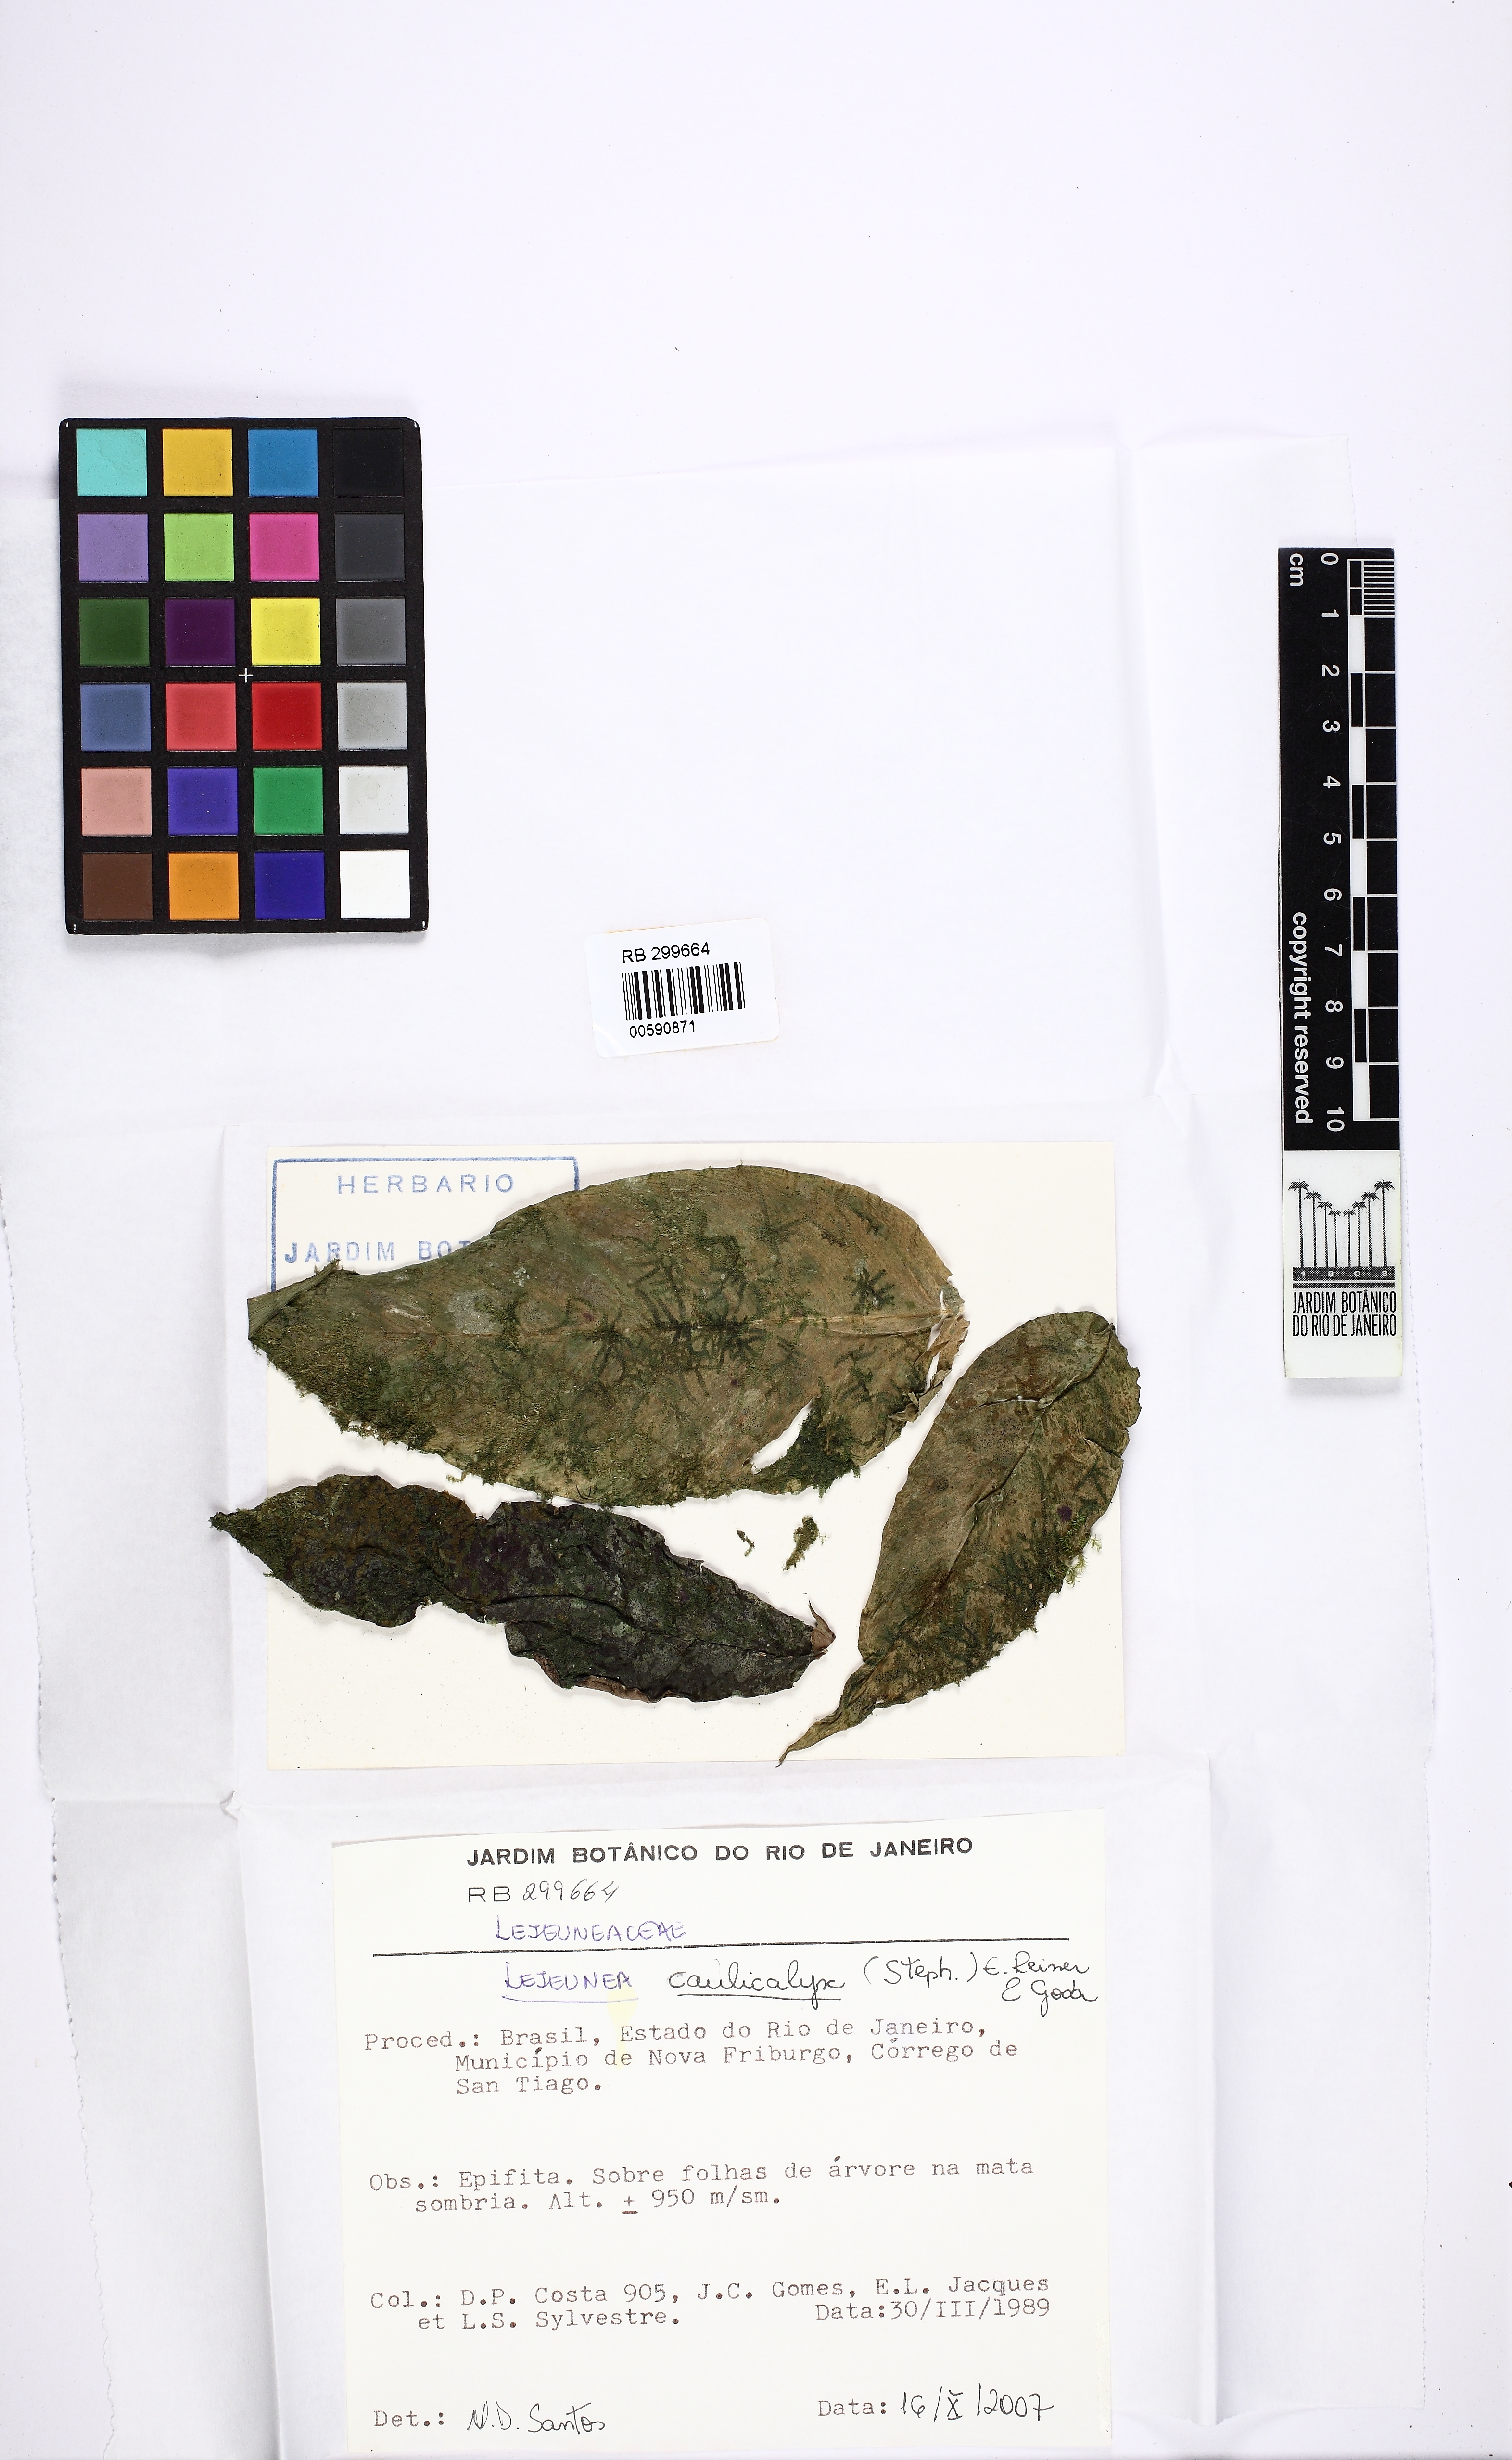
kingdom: Plantae
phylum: Marchantiophyta
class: Jungermanniopsida
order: Porellales
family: Lejeuneaceae
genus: Lejeunea
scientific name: Lejeunea glaucescens
